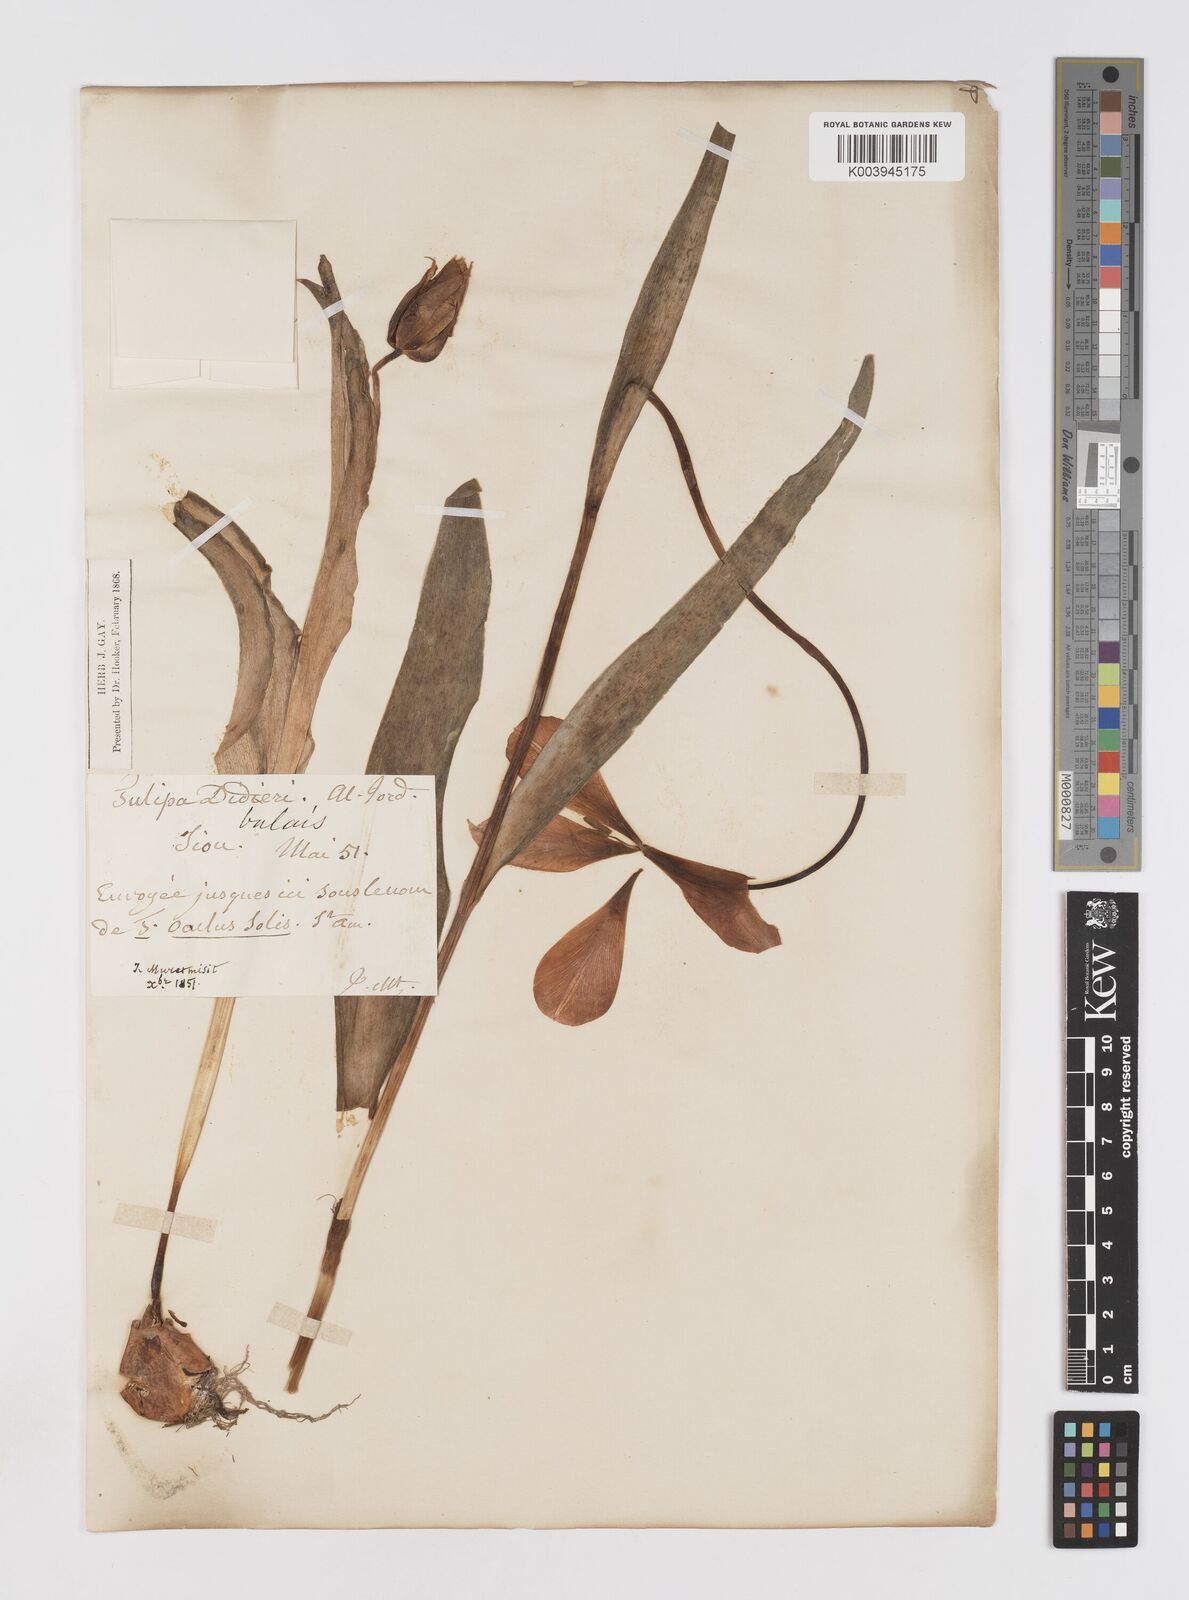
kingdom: Plantae
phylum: Tracheophyta
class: Liliopsida
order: Liliales
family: Liliaceae
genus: Tulipa
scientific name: Tulipa gesneriana
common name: Garden tulip
